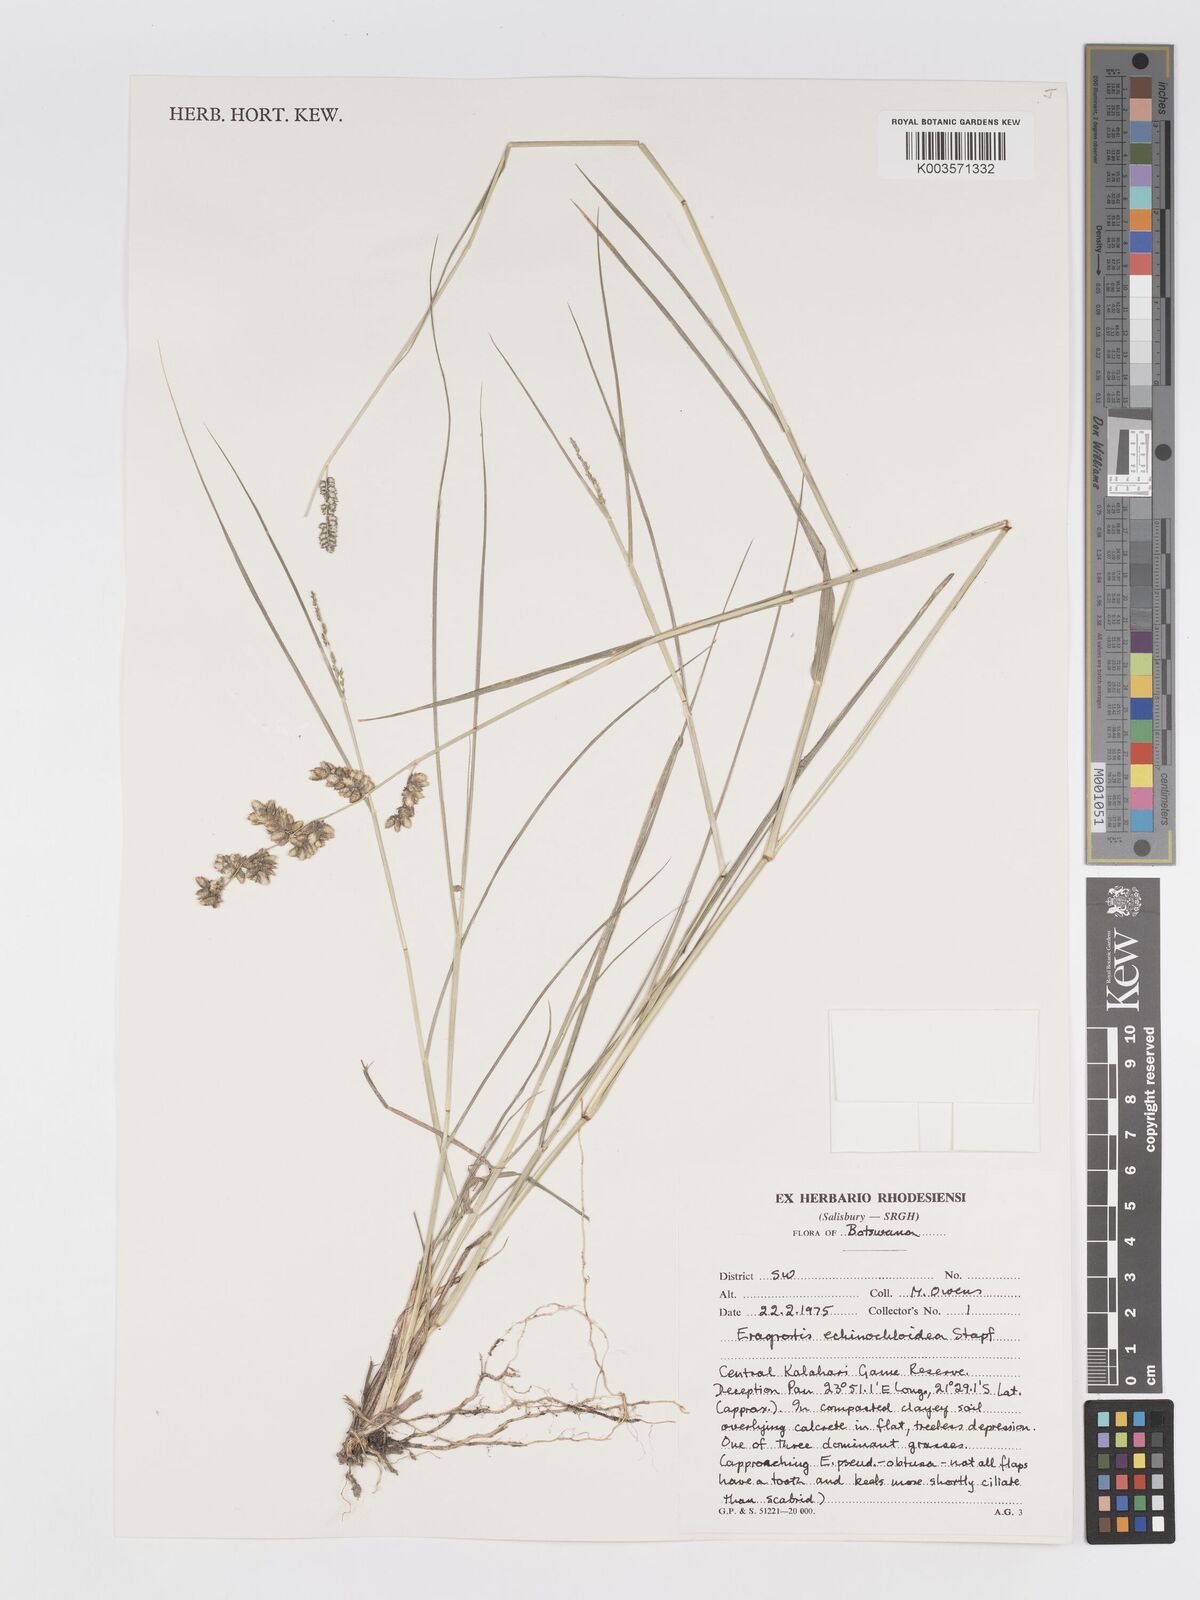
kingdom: Plantae
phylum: Tracheophyta
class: Liliopsida
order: Poales
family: Poaceae
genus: Eragrostis
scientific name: Eragrostis echinochloidea
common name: African lovegrass
